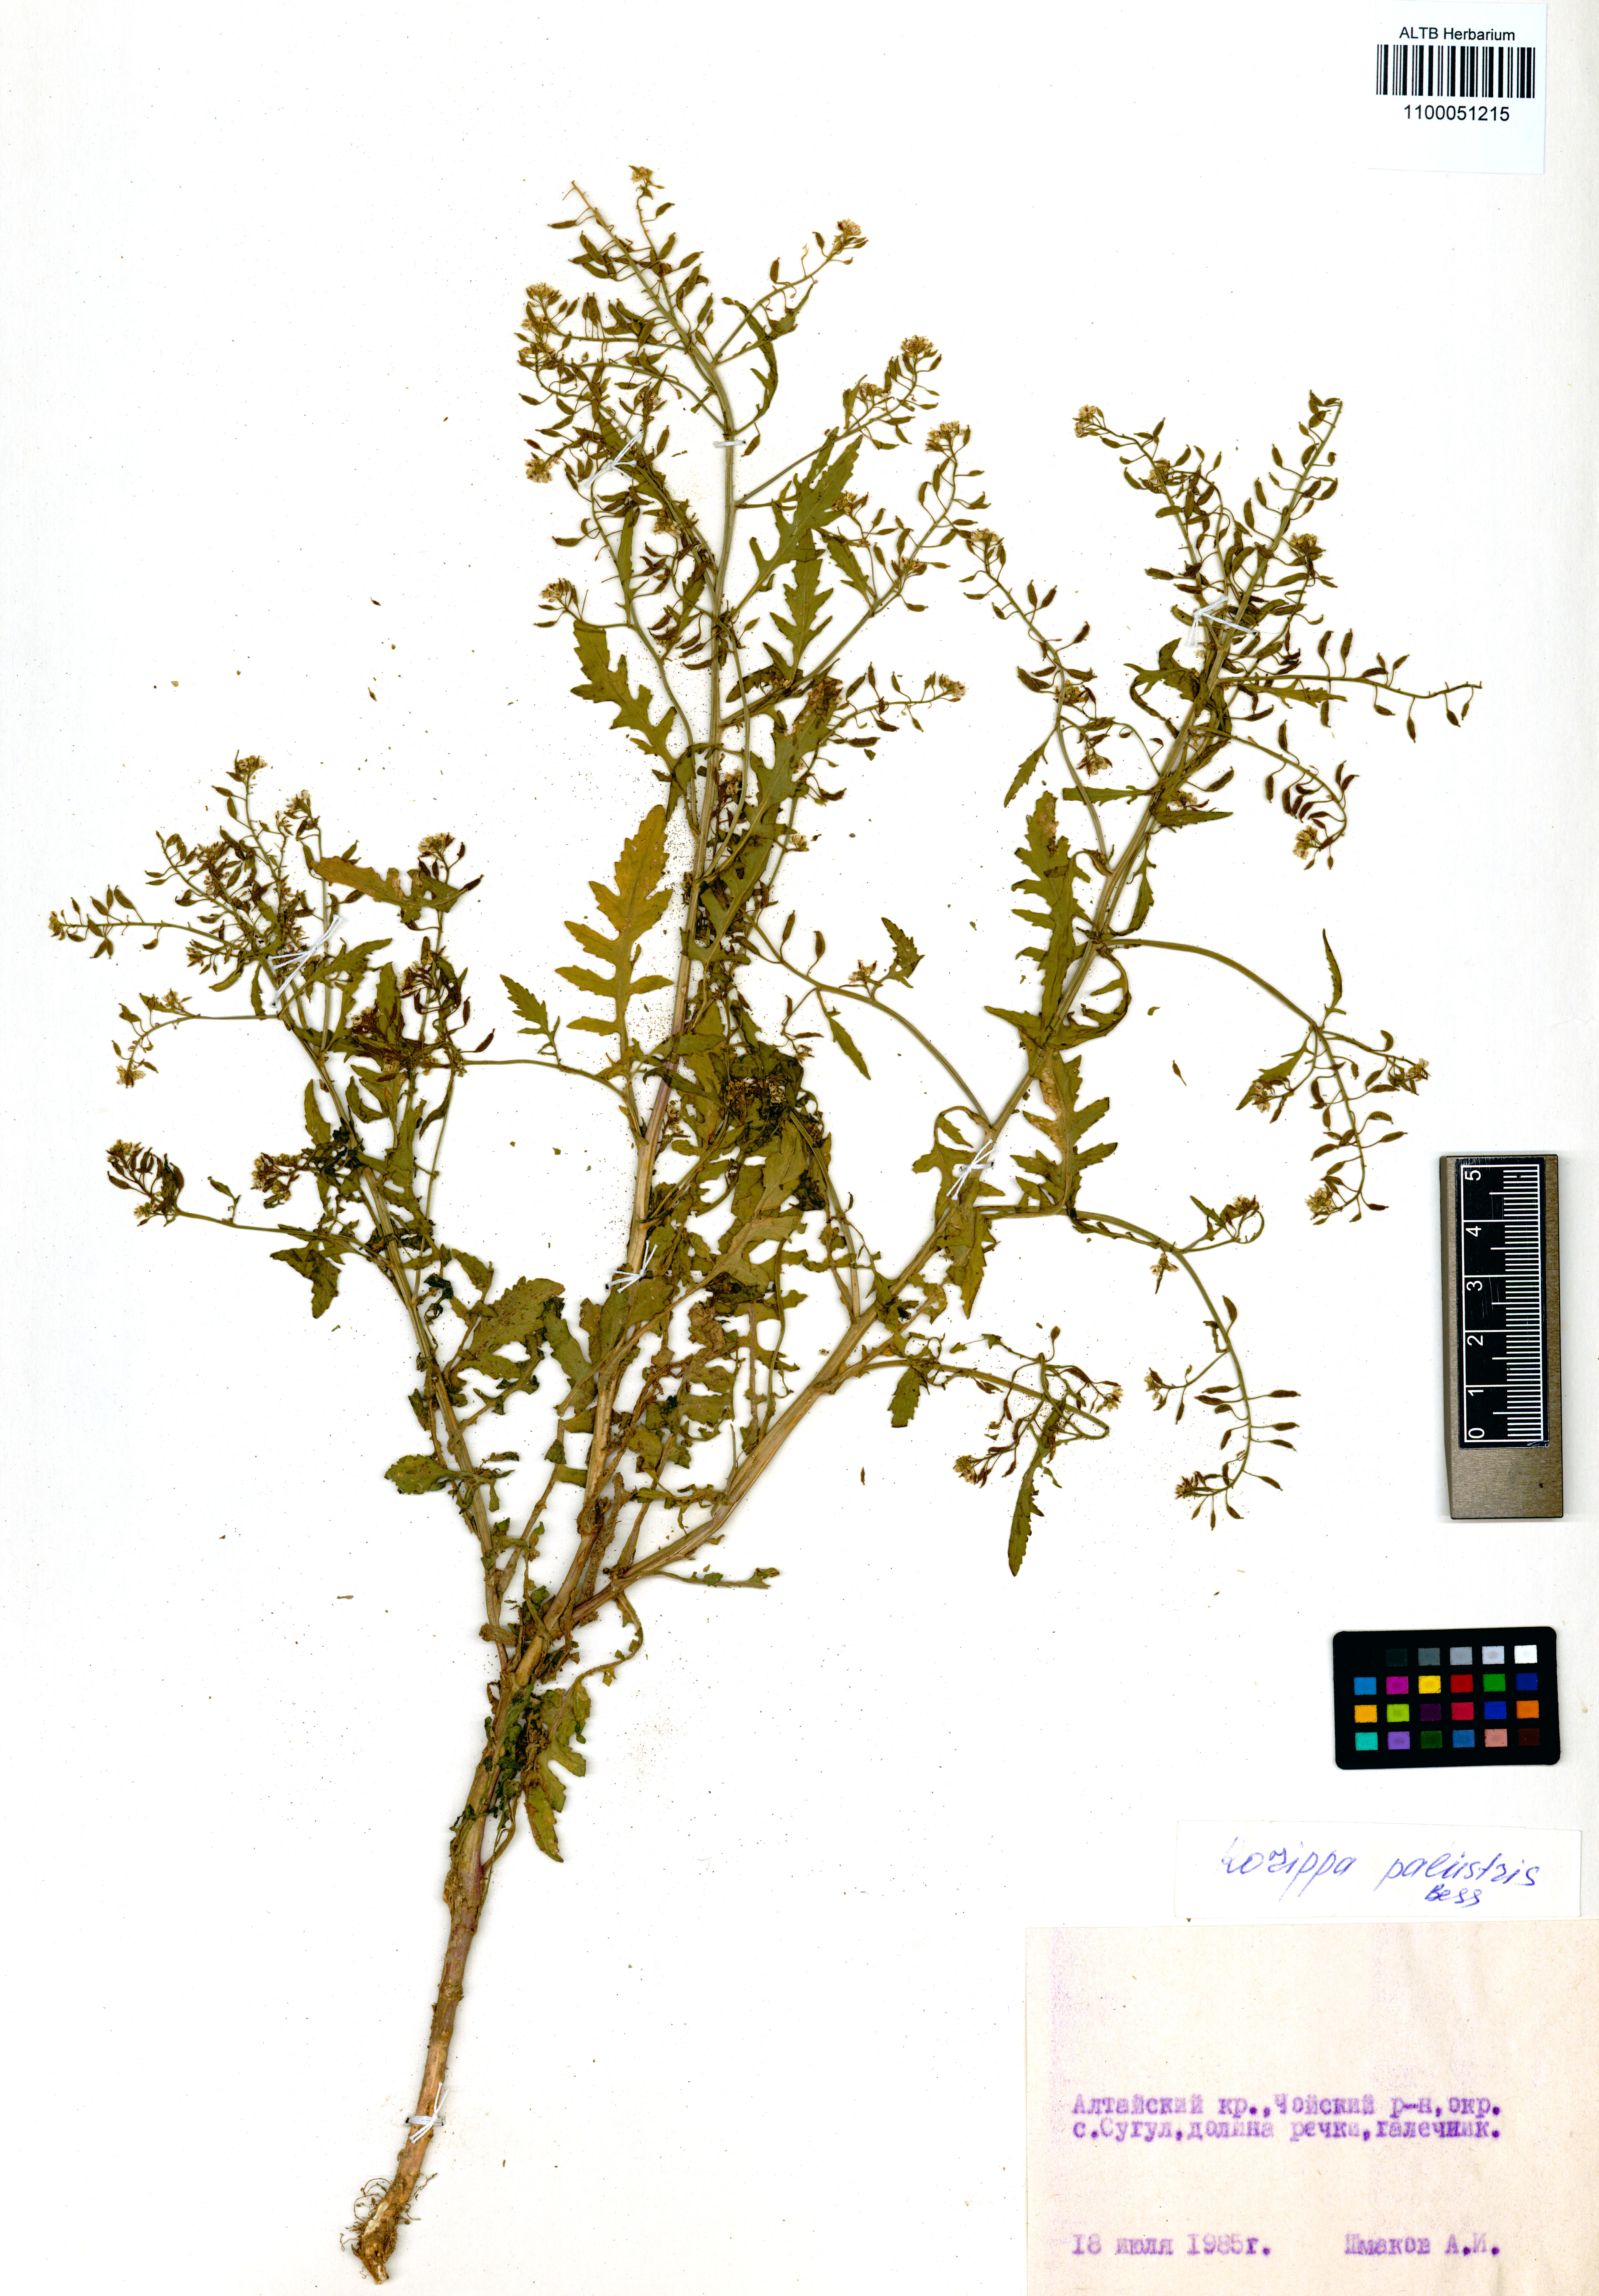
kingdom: Plantae
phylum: Tracheophyta
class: Magnoliopsida
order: Brassicales
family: Brassicaceae
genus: Rorippa
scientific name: Rorippa palustris
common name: Marsh yellow-cress
